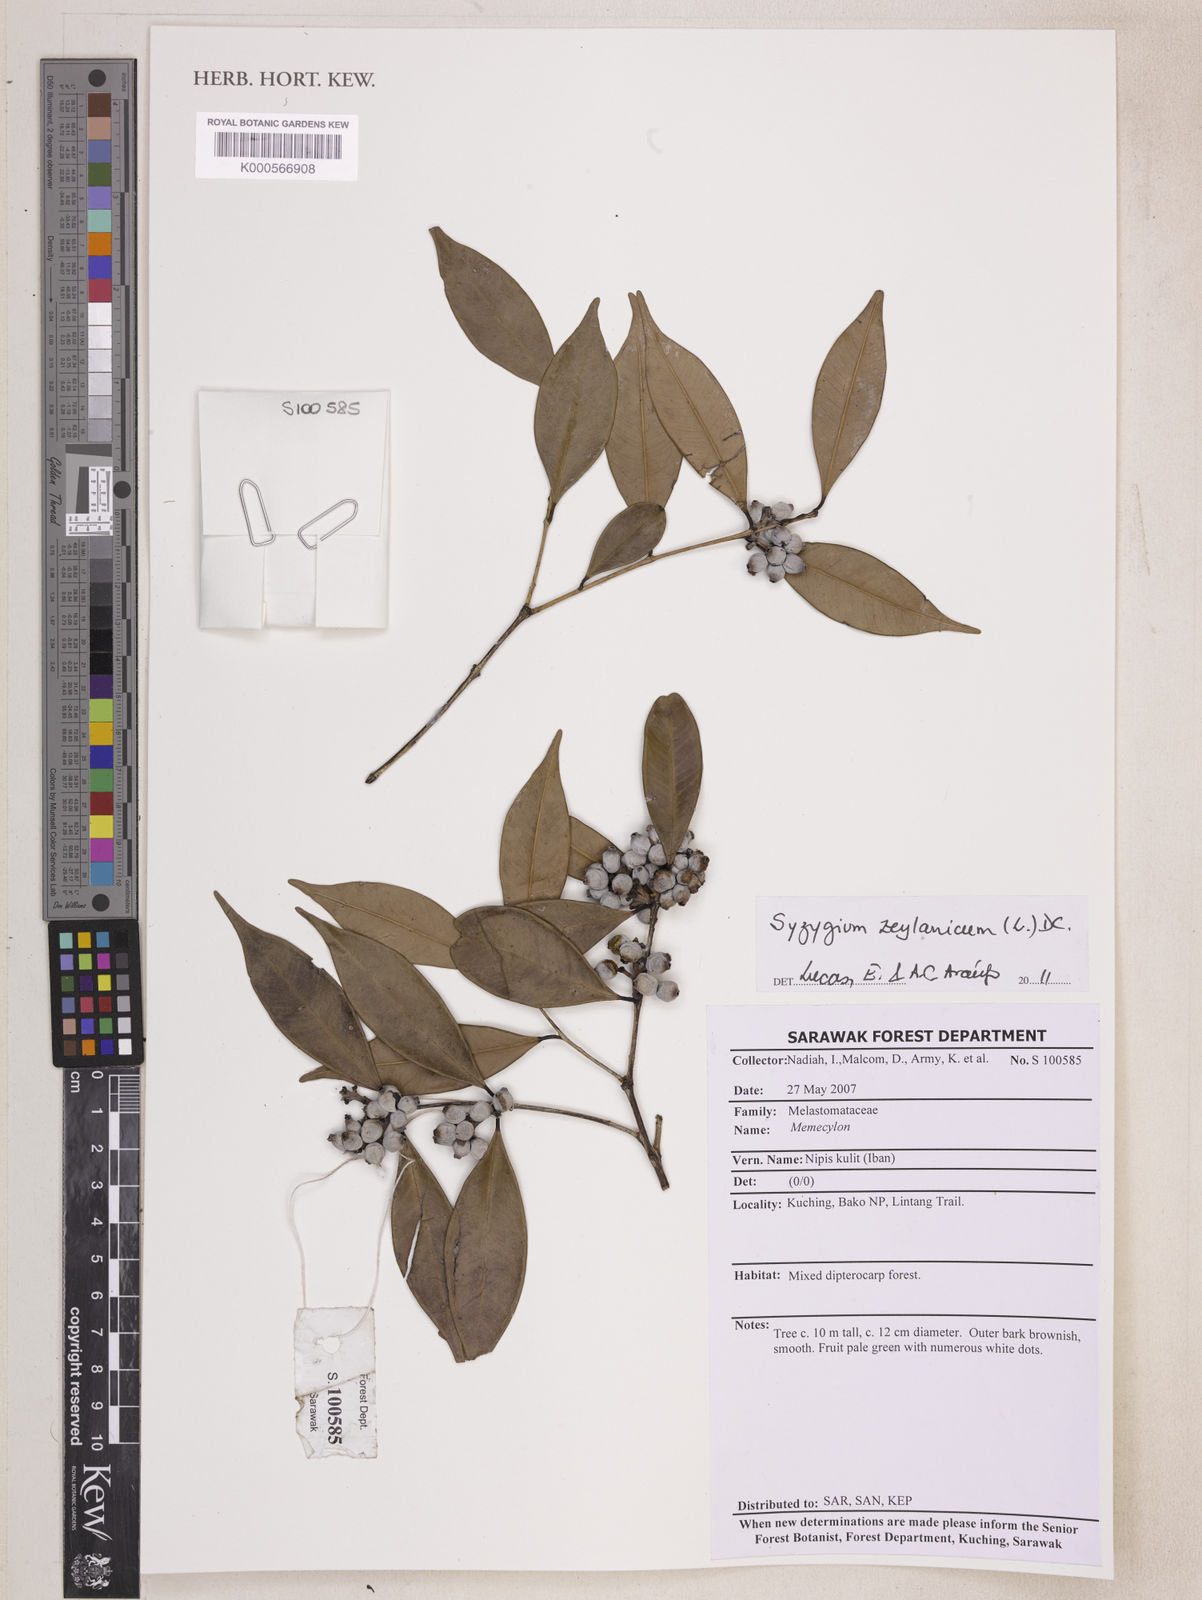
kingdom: Plantae
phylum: Tracheophyta
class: Magnoliopsida
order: Myrtales
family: Myrtaceae
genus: Syzygium
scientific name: Syzygium zeylanicum
